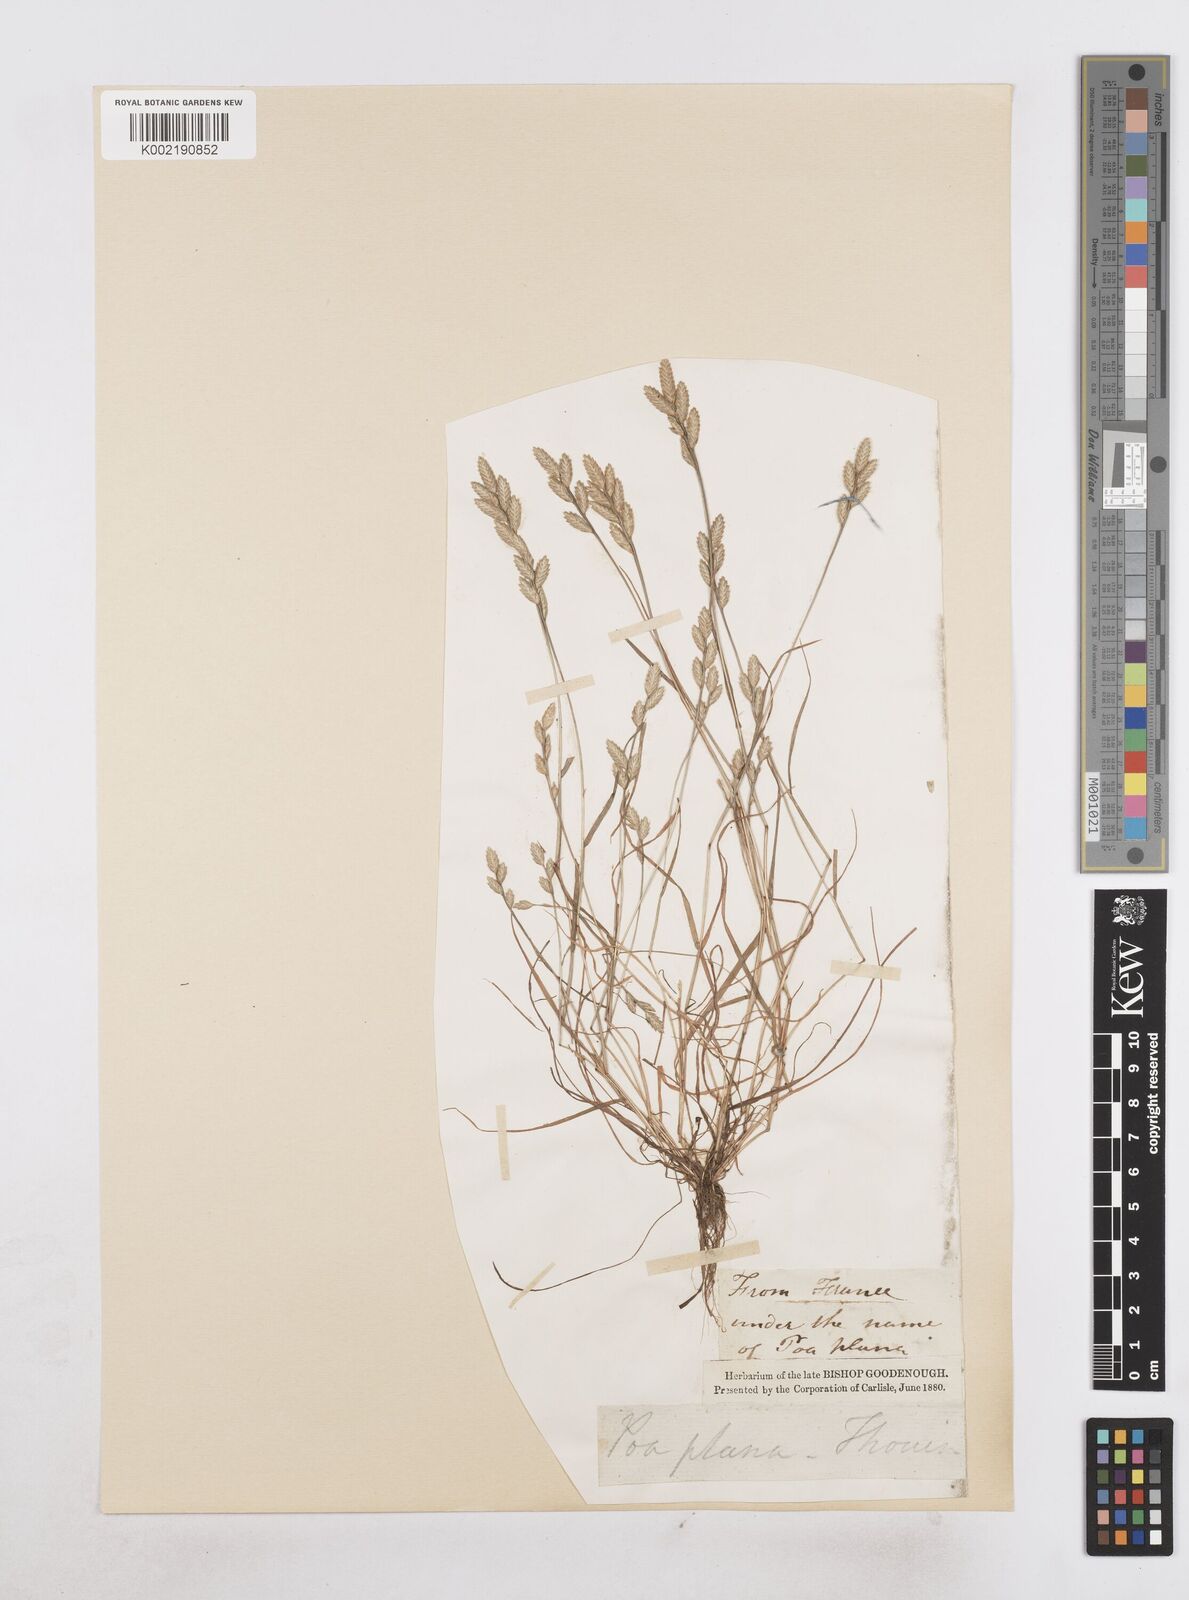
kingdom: Plantae
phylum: Tracheophyta
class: Liliopsida
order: Poales
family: Poaceae
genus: Desmazeria
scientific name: Desmazeria sicula
